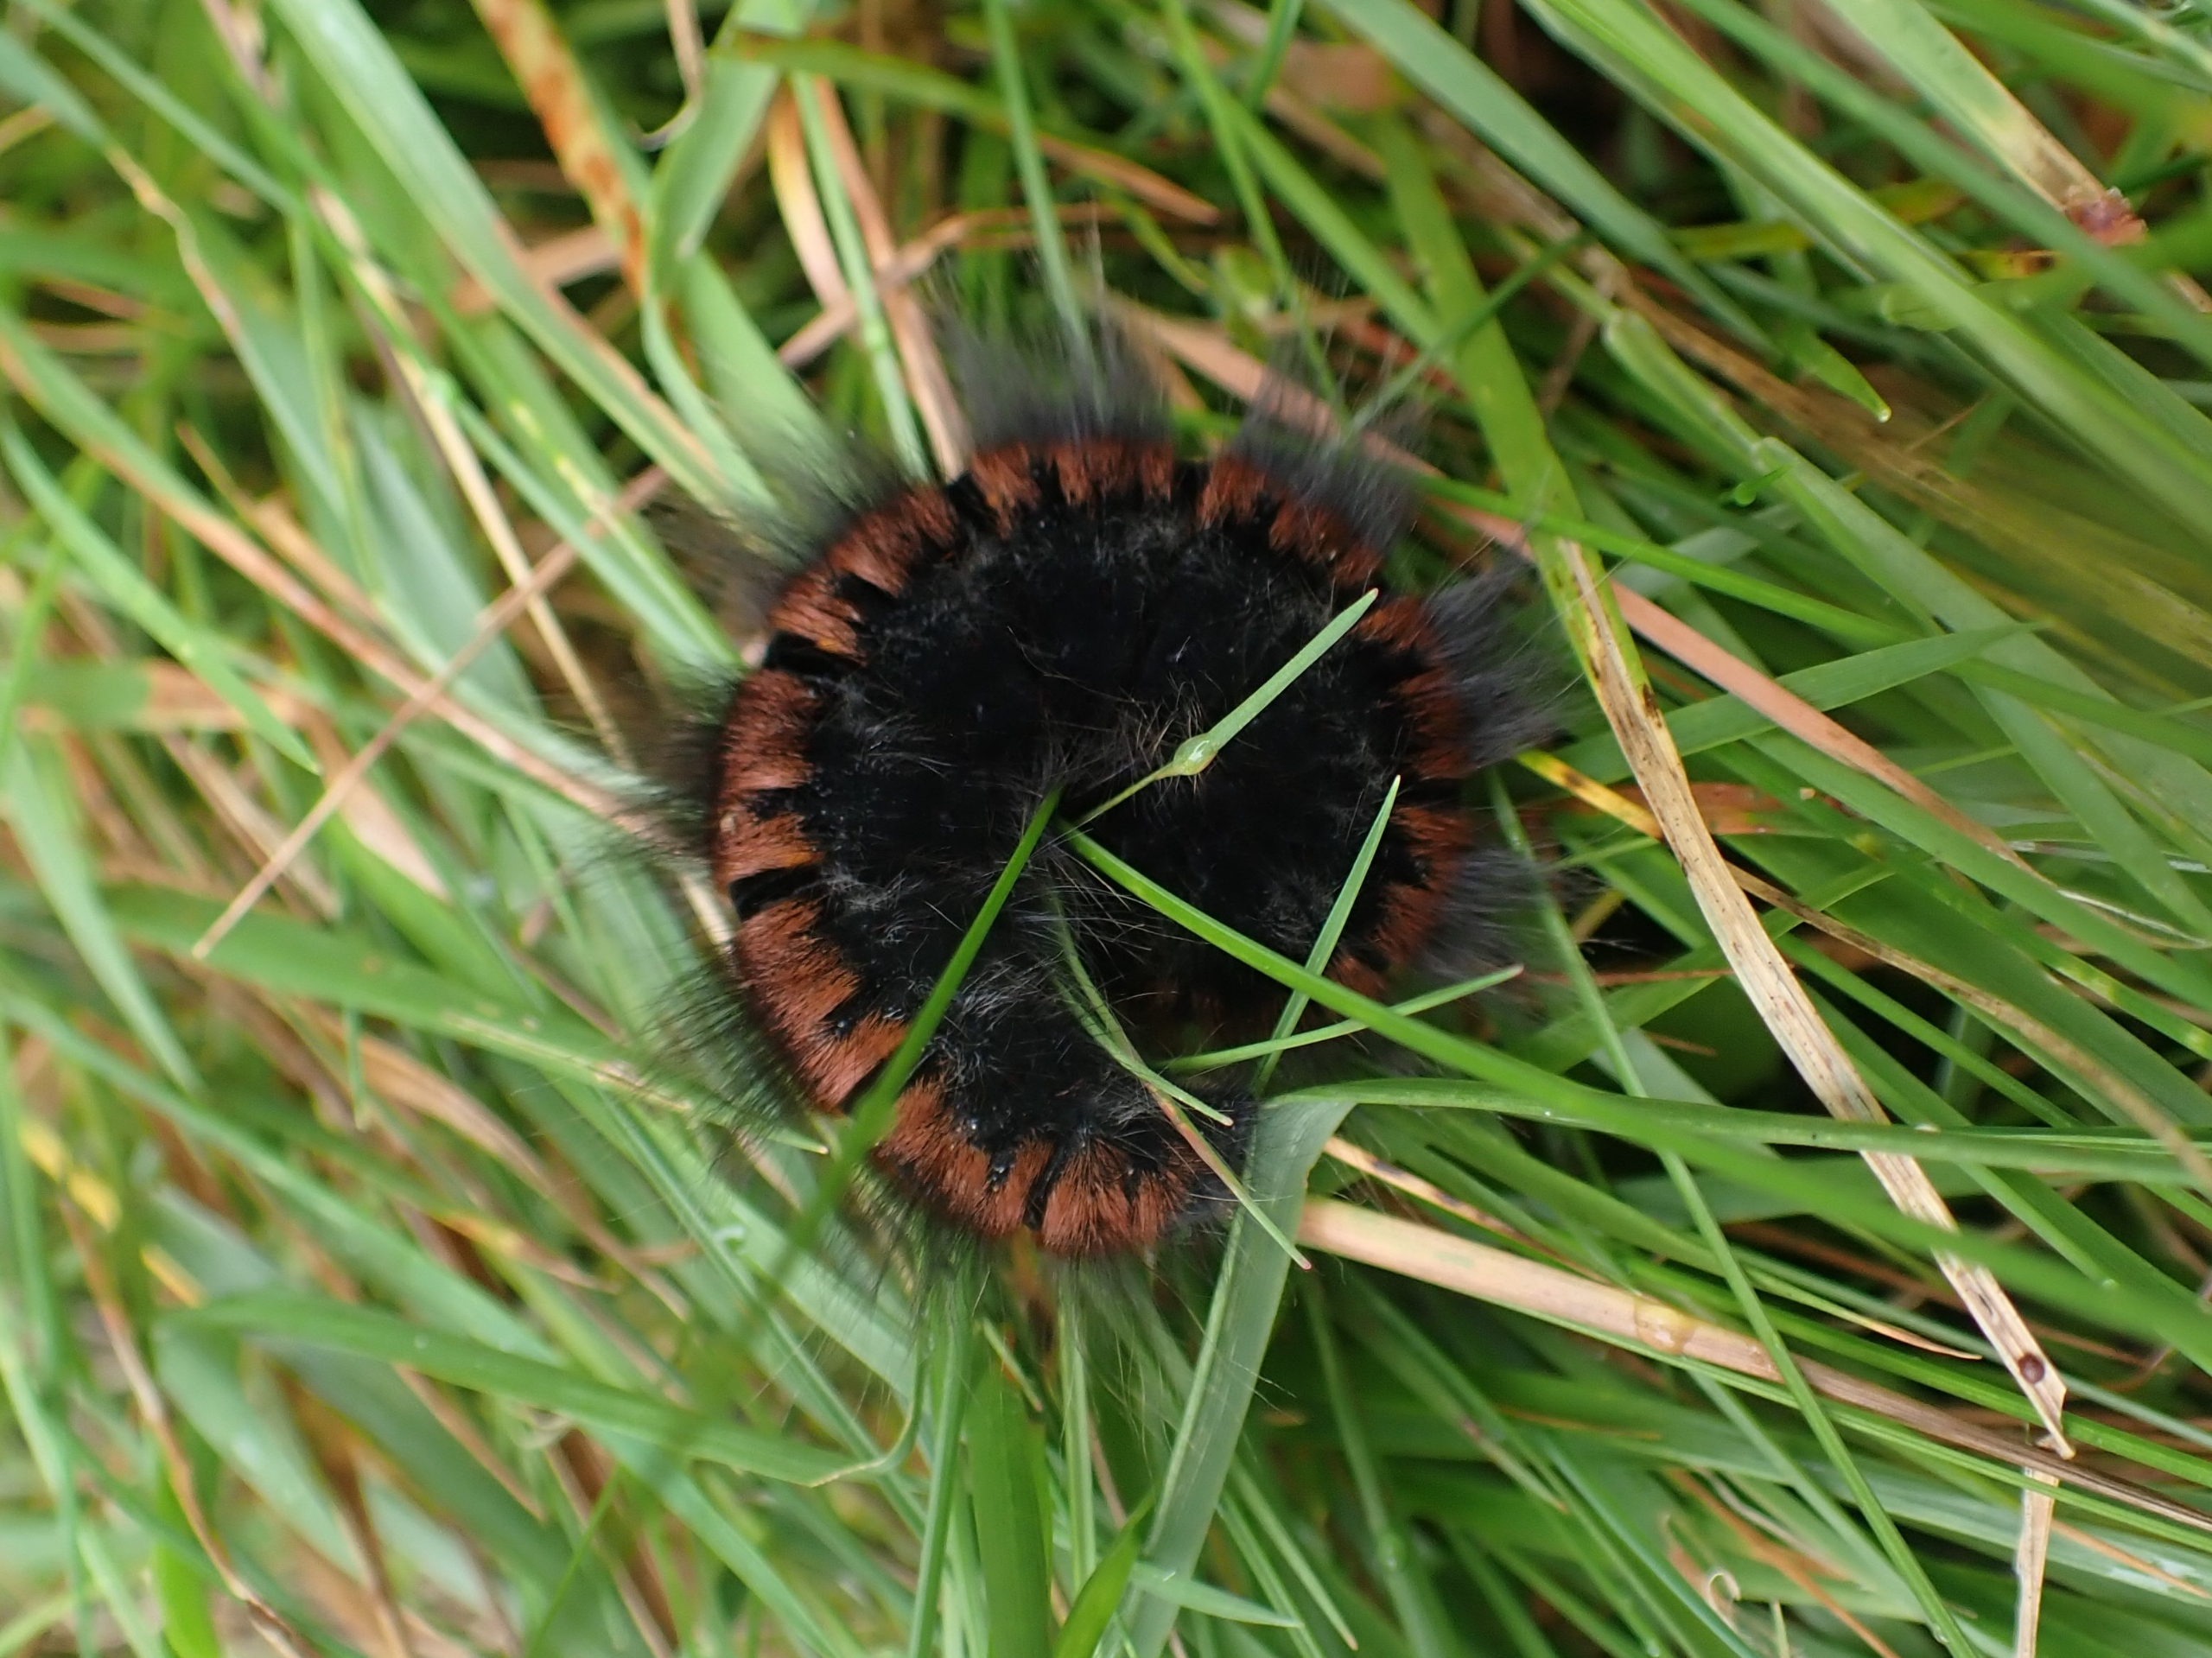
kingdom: Animalia
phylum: Arthropoda
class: Insecta
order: Lepidoptera
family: Lasiocampidae
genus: Macrothylacia
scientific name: Macrothylacia rubi
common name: Brombærspinder
